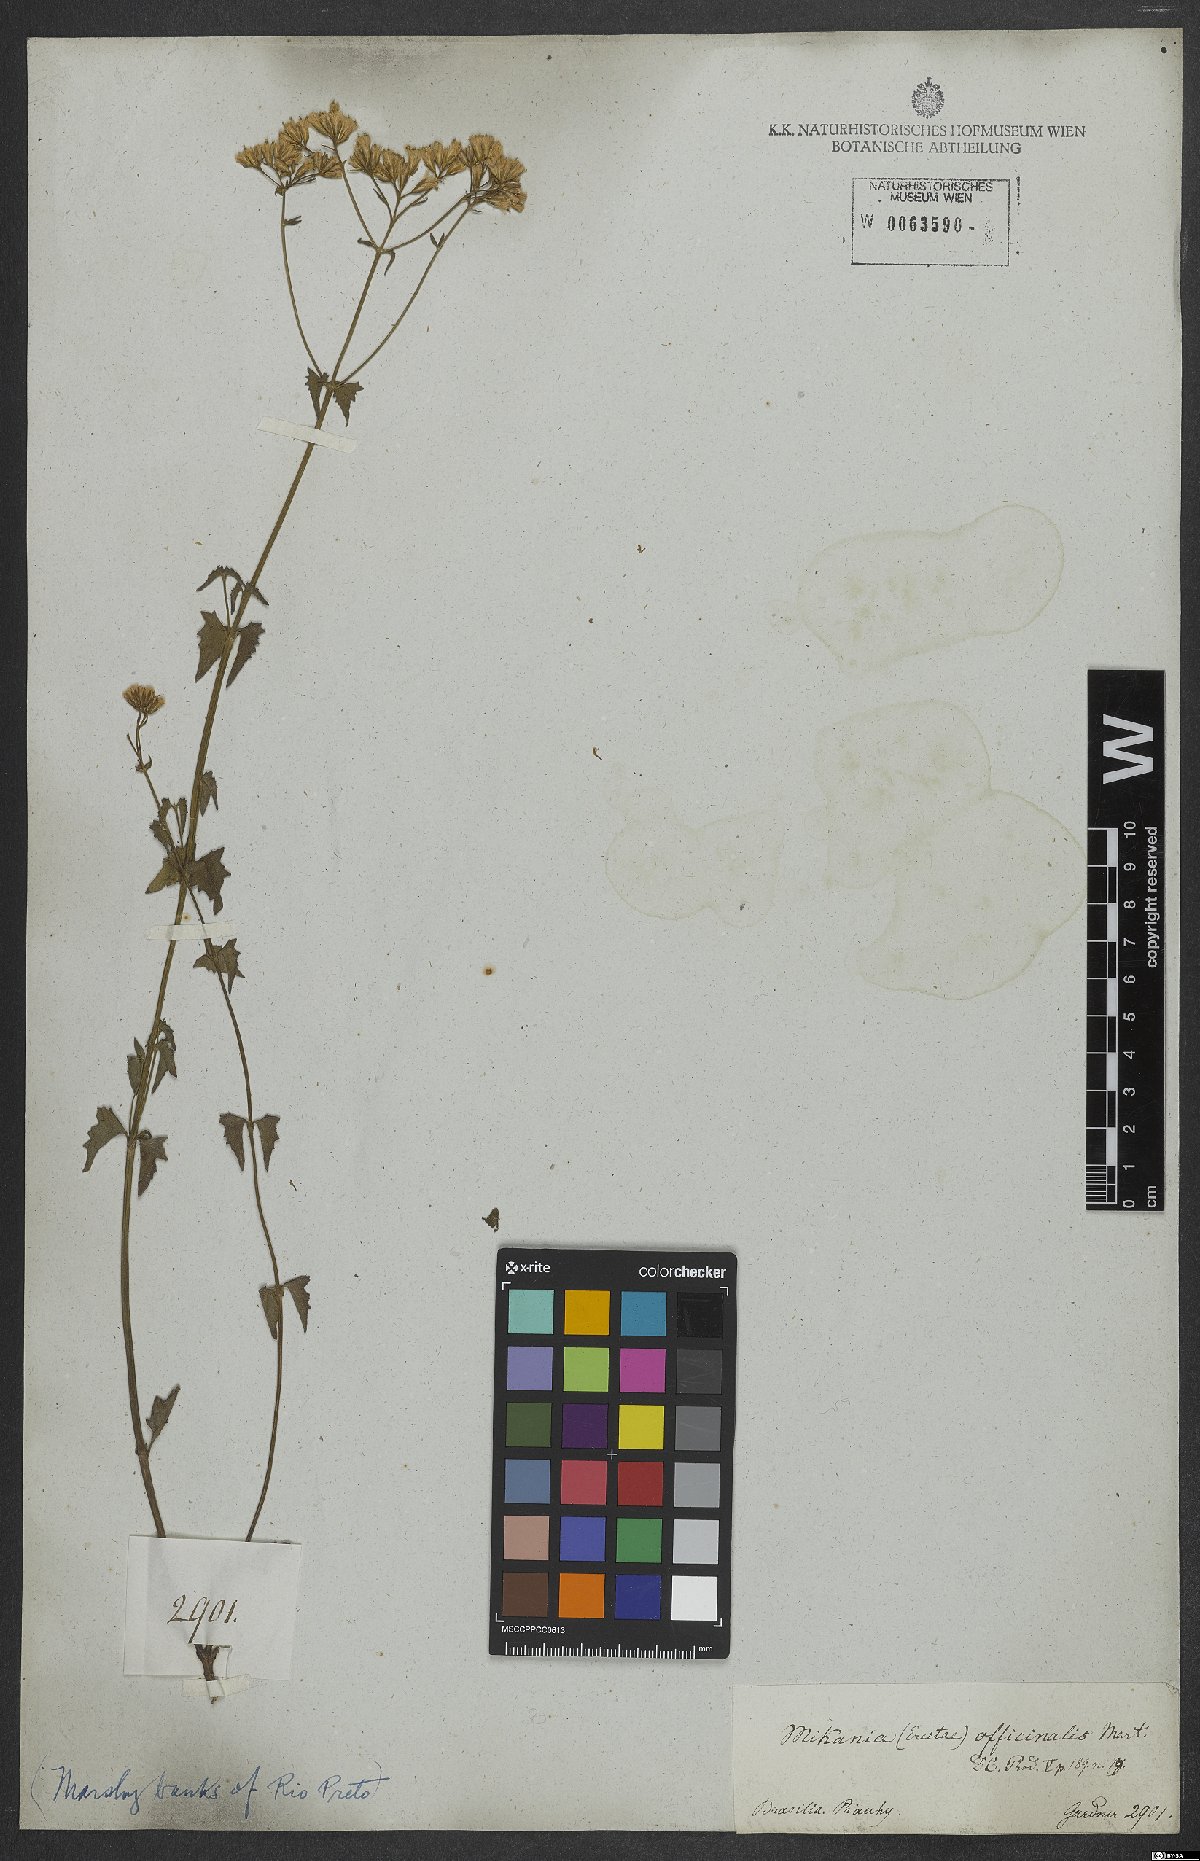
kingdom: Plantae
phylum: Tracheophyta
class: Magnoliopsida
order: Asterales
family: Asteraceae
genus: Mikania
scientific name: Mikania officinalis
